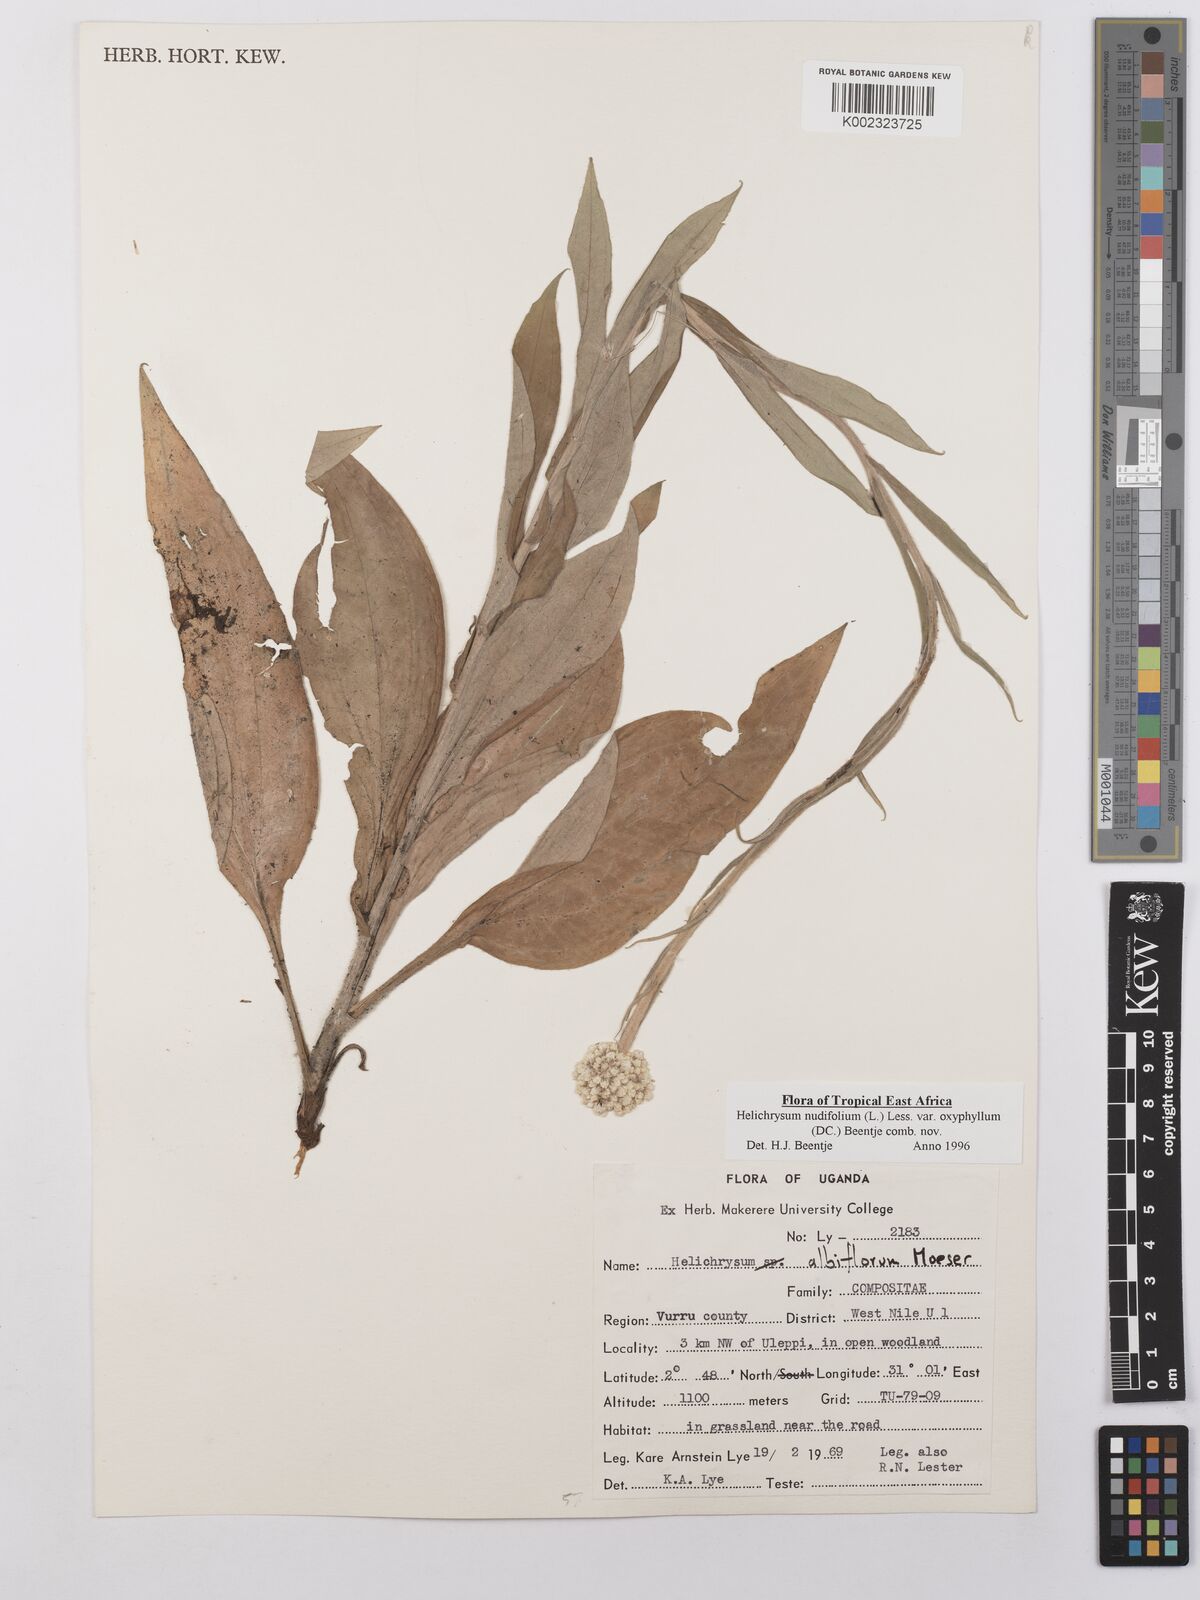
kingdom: Plantae
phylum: Tracheophyta
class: Magnoliopsida
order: Asterales
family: Asteraceae
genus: Helichrysum
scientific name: Helichrysum nudifolium
